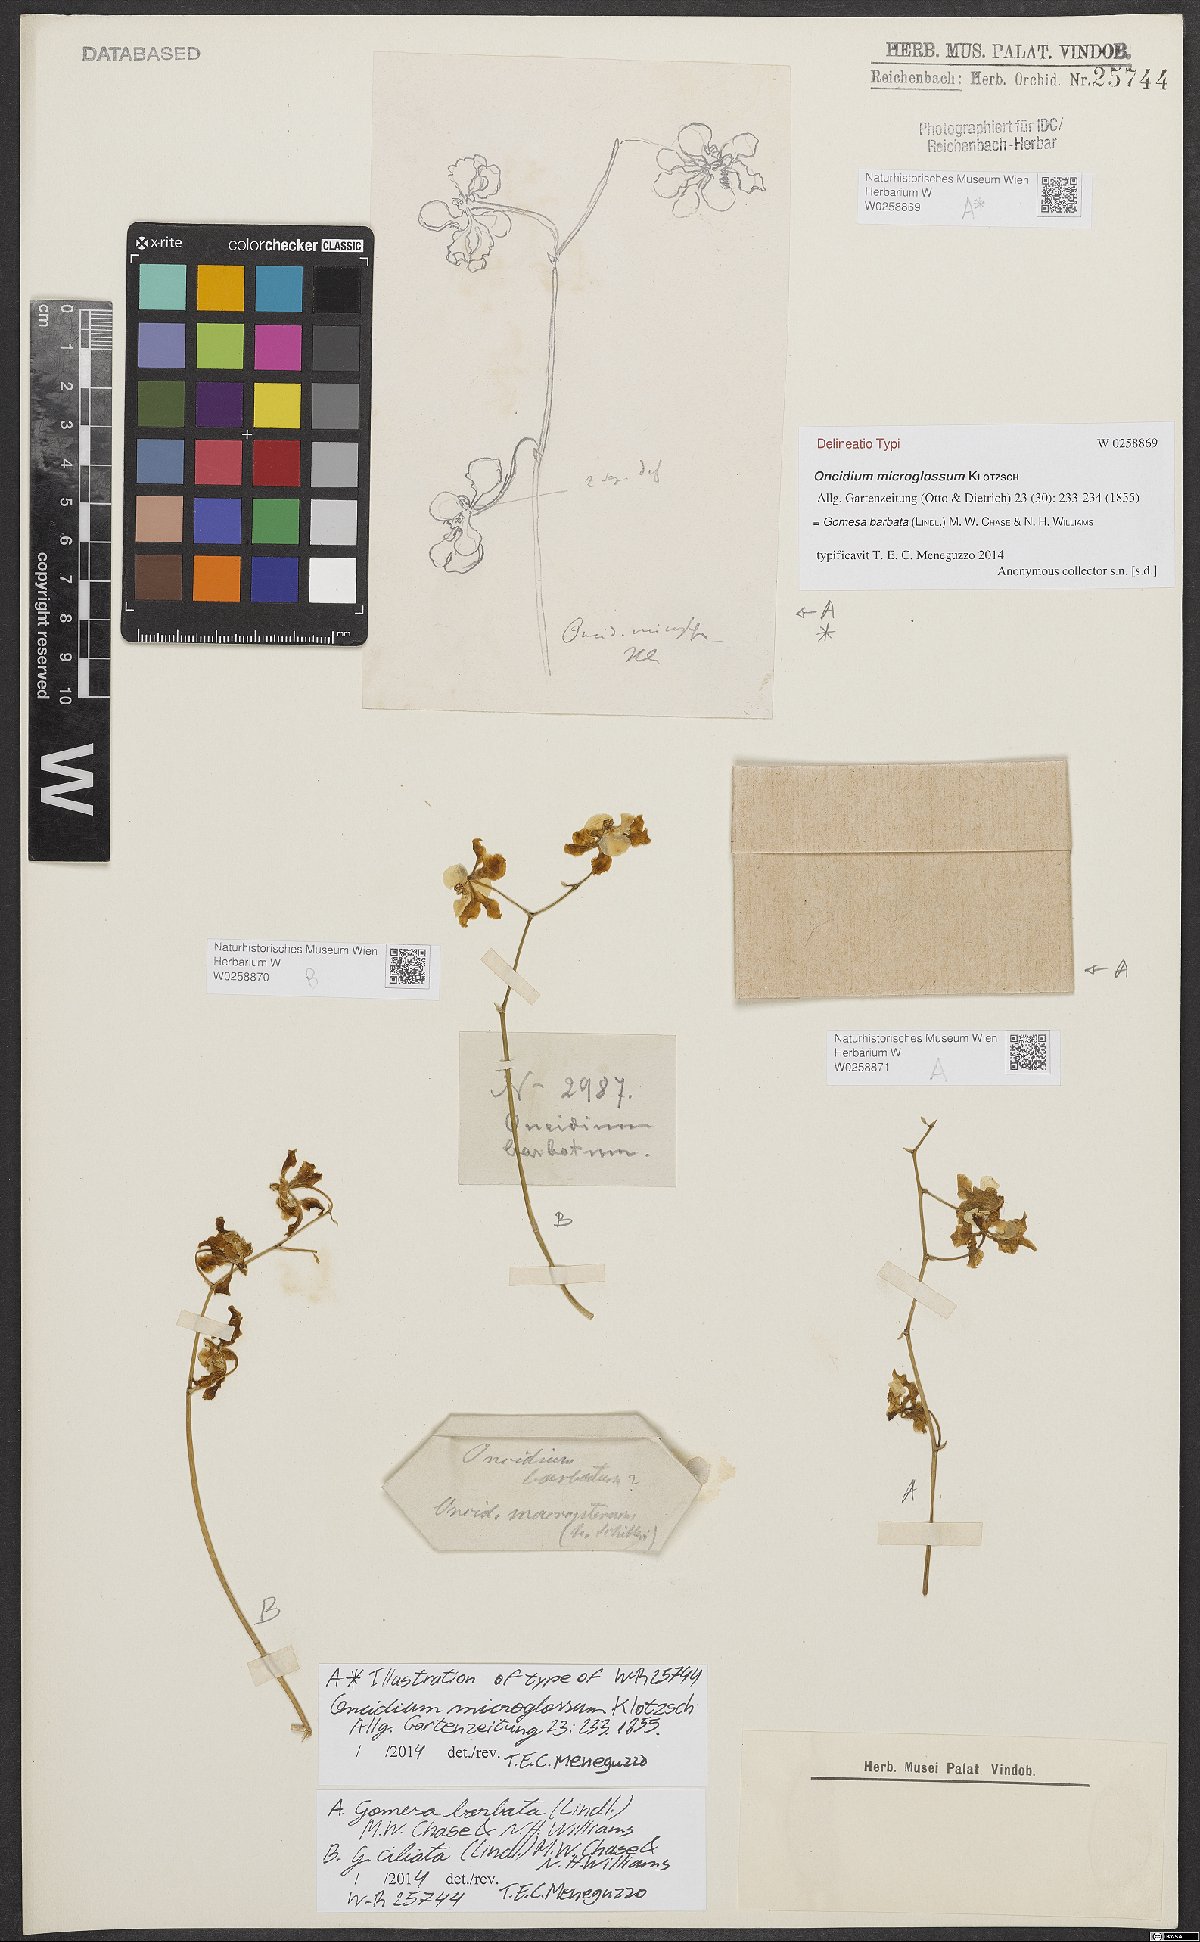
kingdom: Plantae
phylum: Tracheophyta
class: Liliopsida
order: Asparagales
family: Orchidaceae
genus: Gomesa
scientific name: Gomesa barbata
